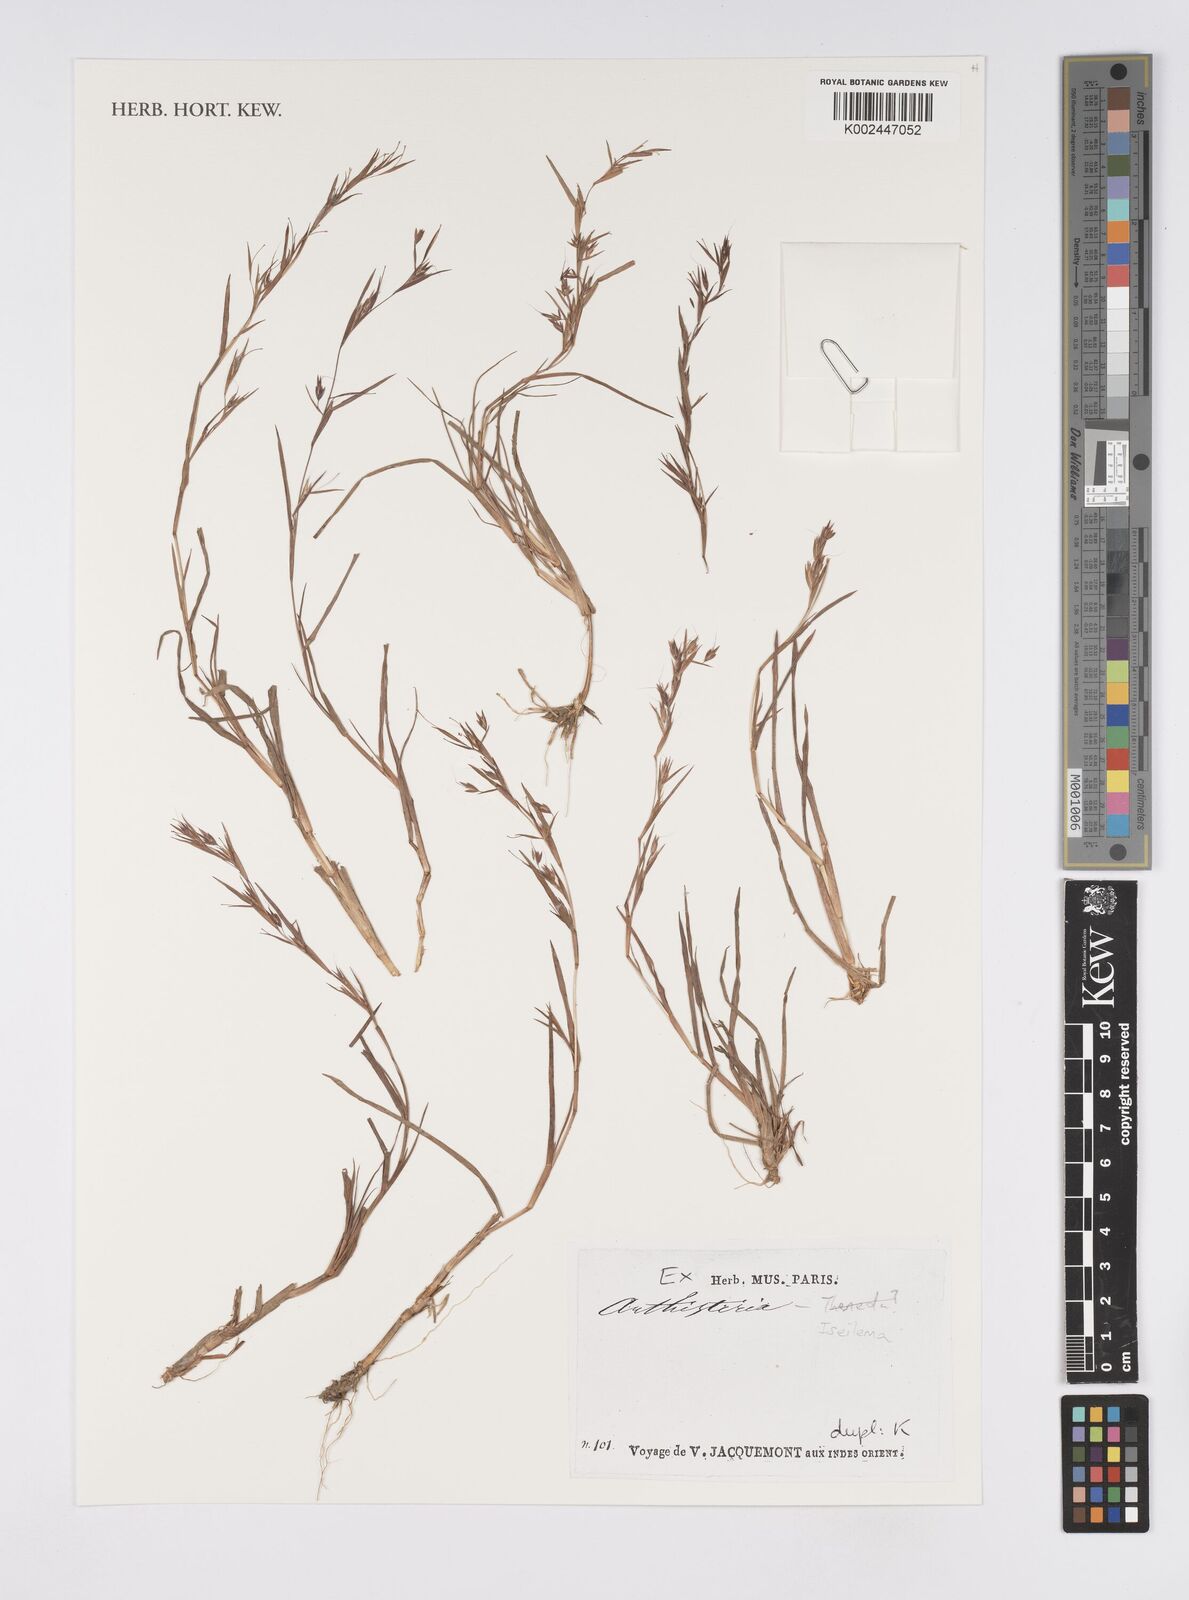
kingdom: Plantae
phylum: Tracheophyta
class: Liliopsida
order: Poales
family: Poaceae
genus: Iseilema
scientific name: Iseilema
